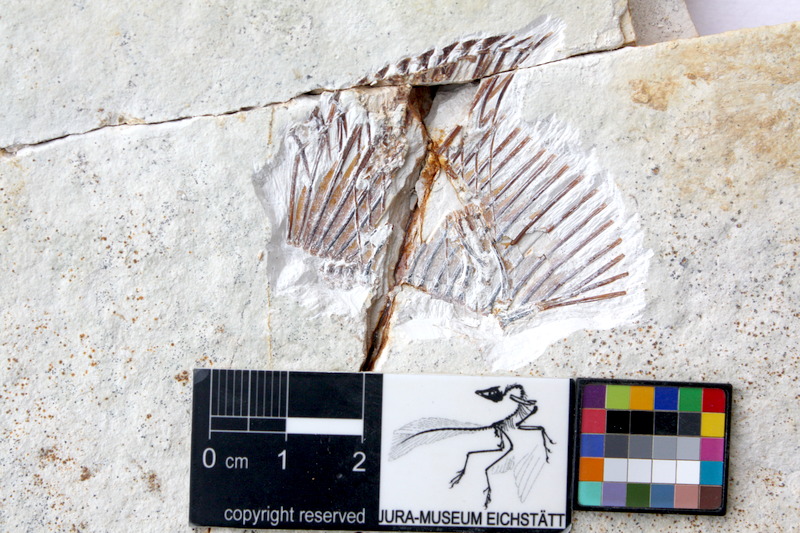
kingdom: Animalia
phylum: Chordata
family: Pycnodontidae
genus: Turbomesodon
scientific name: Turbomesodon relegans
